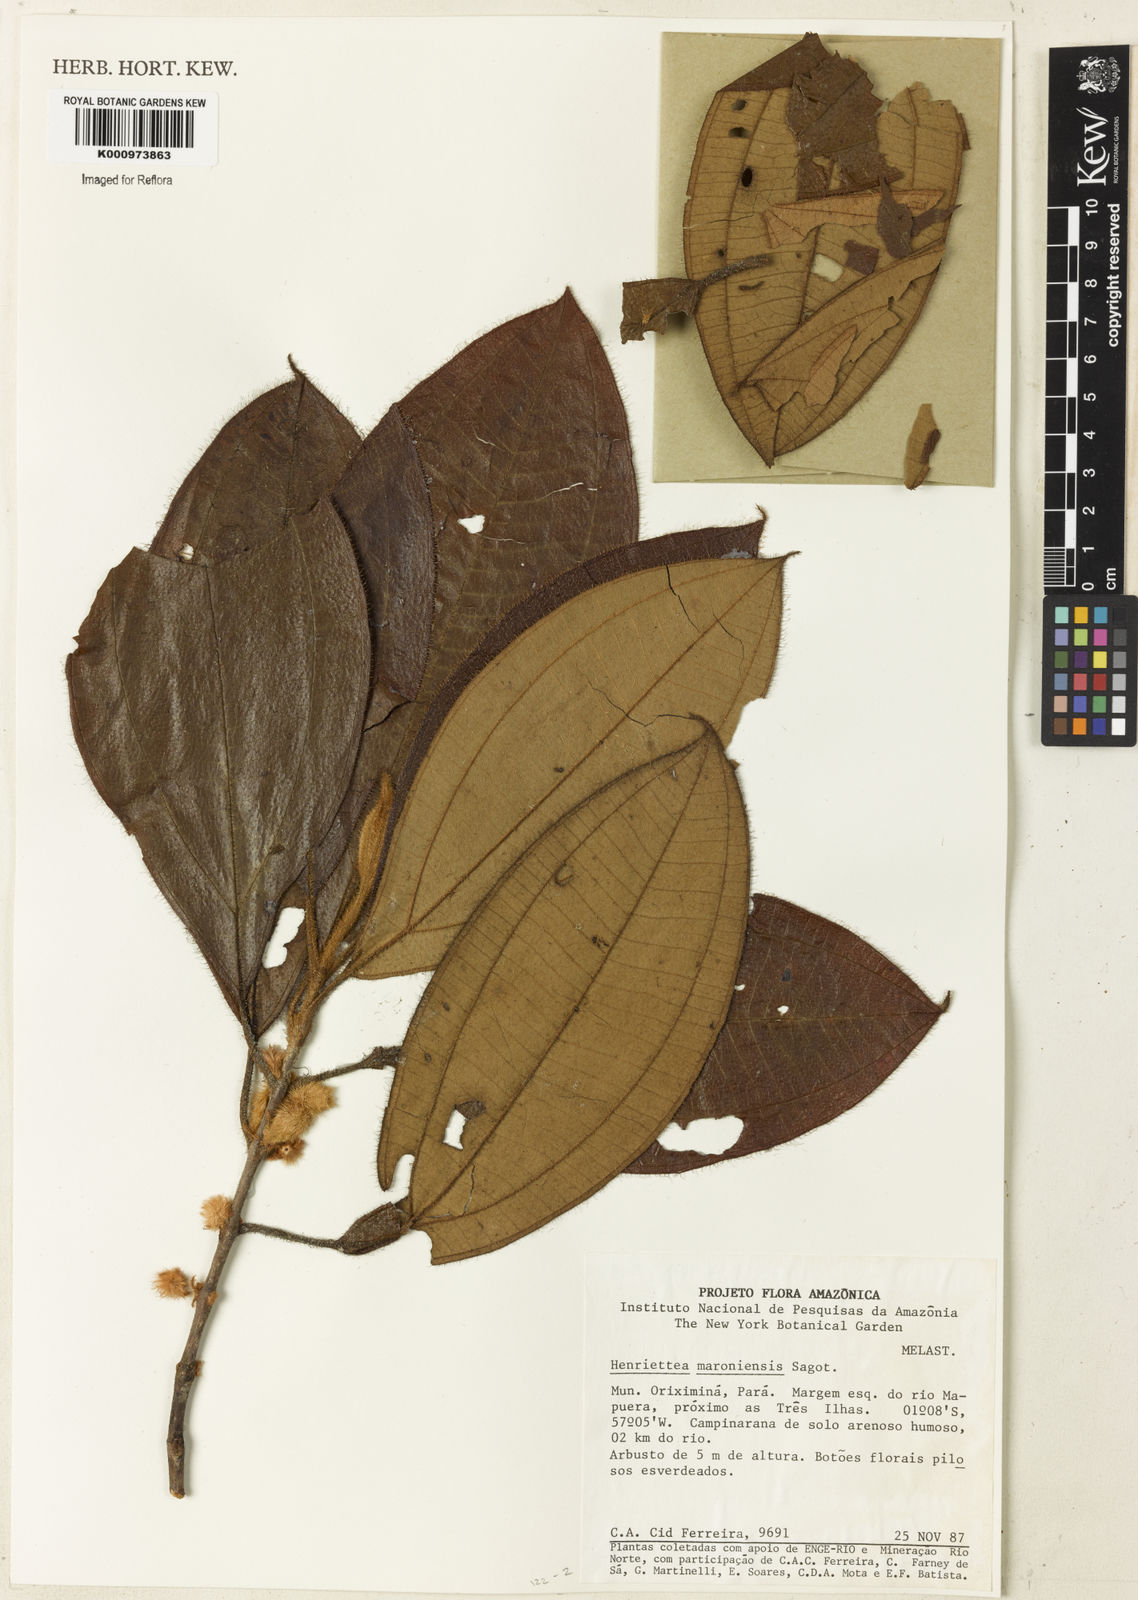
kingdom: Plantae
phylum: Tracheophyta
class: Magnoliopsida
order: Myrtales
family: Melastomataceae
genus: Henriettea
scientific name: Henriettea maroniensis
